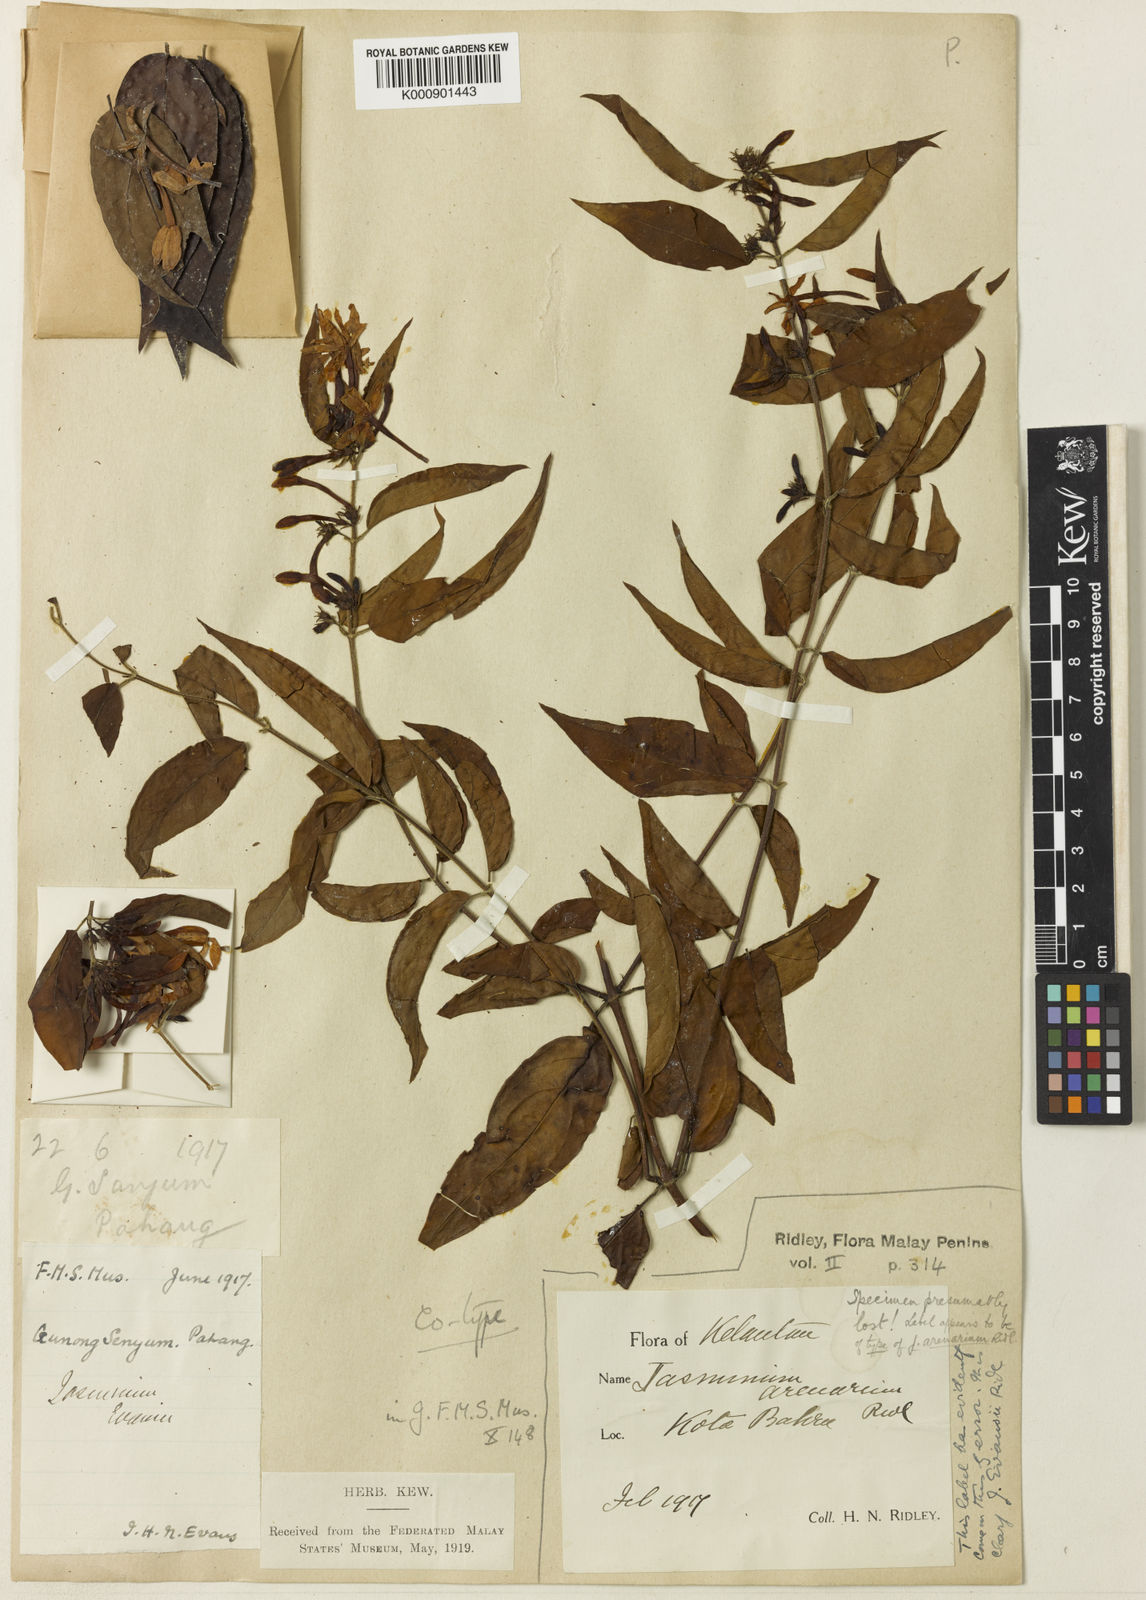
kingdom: Plantae
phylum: Tracheophyta
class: Magnoliopsida
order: Lamiales
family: Oleaceae
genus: Jasminum
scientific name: Jasminum elongatum
